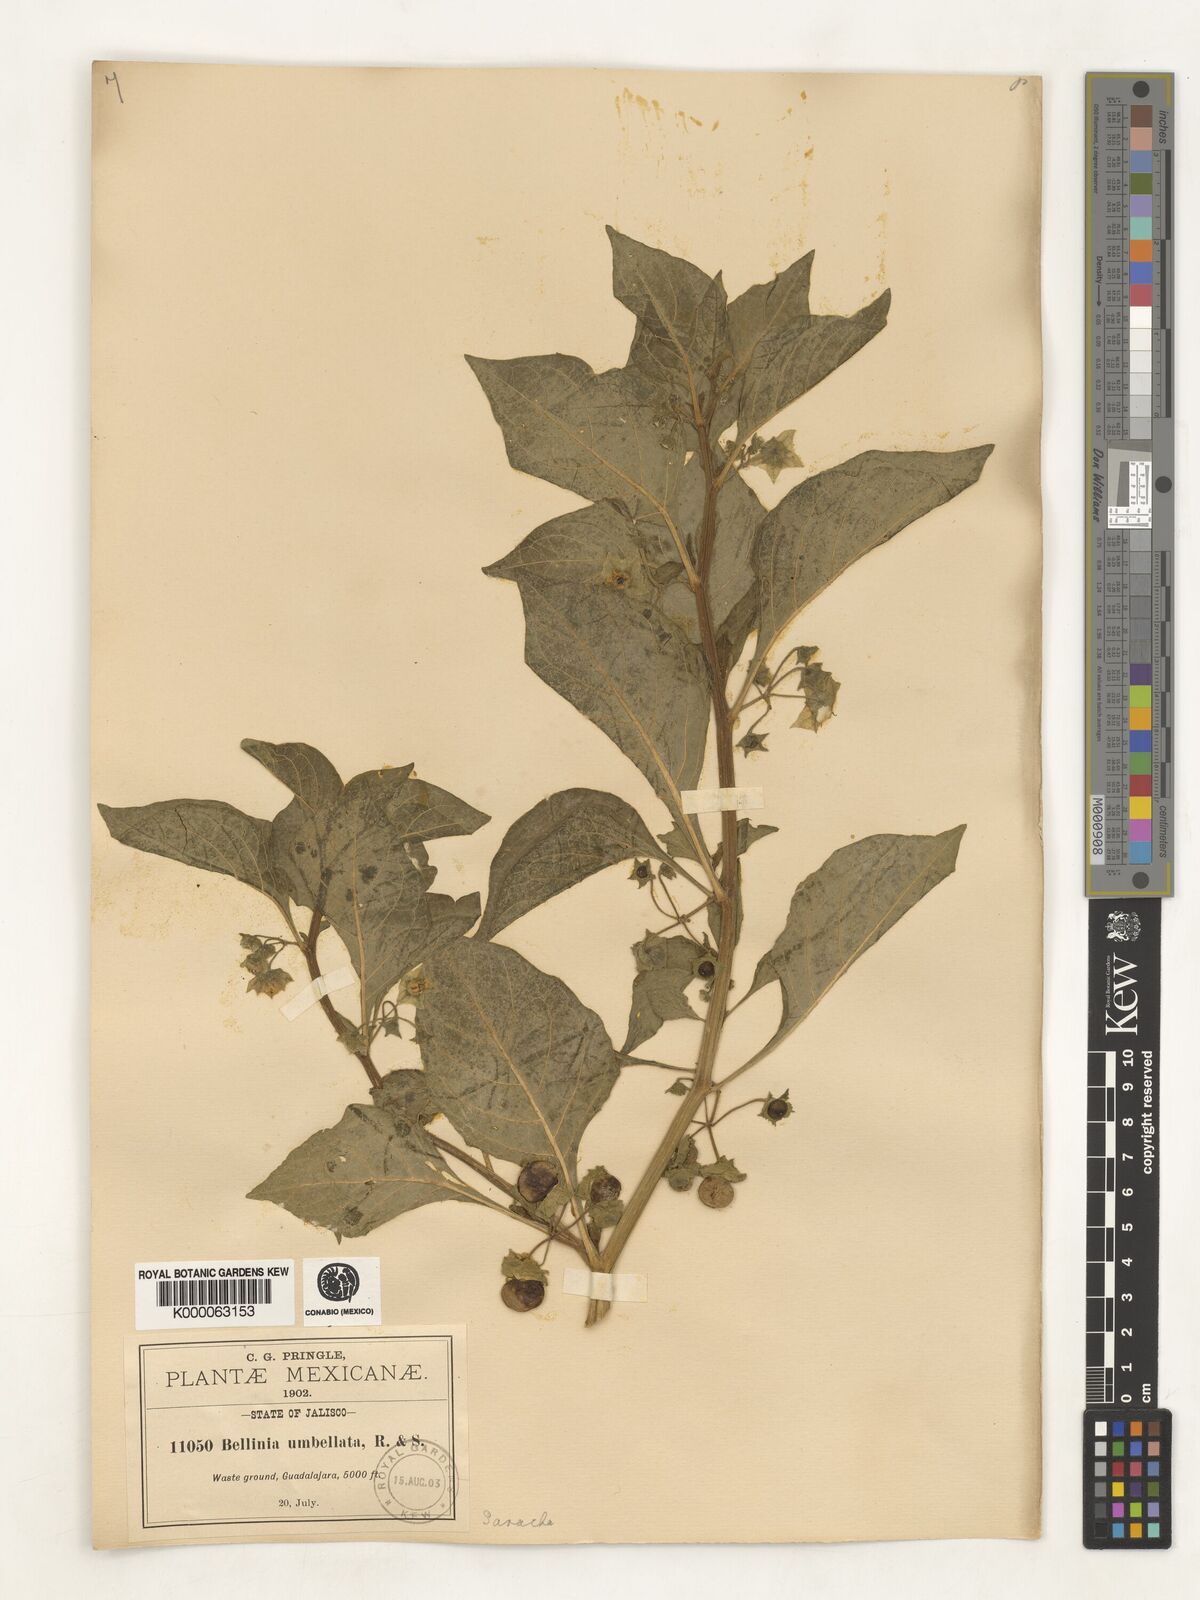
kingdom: Plantae
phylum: Tracheophyta
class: Magnoliopsida
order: Solanales
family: Solanaceae
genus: Saracha
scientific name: Saracha
